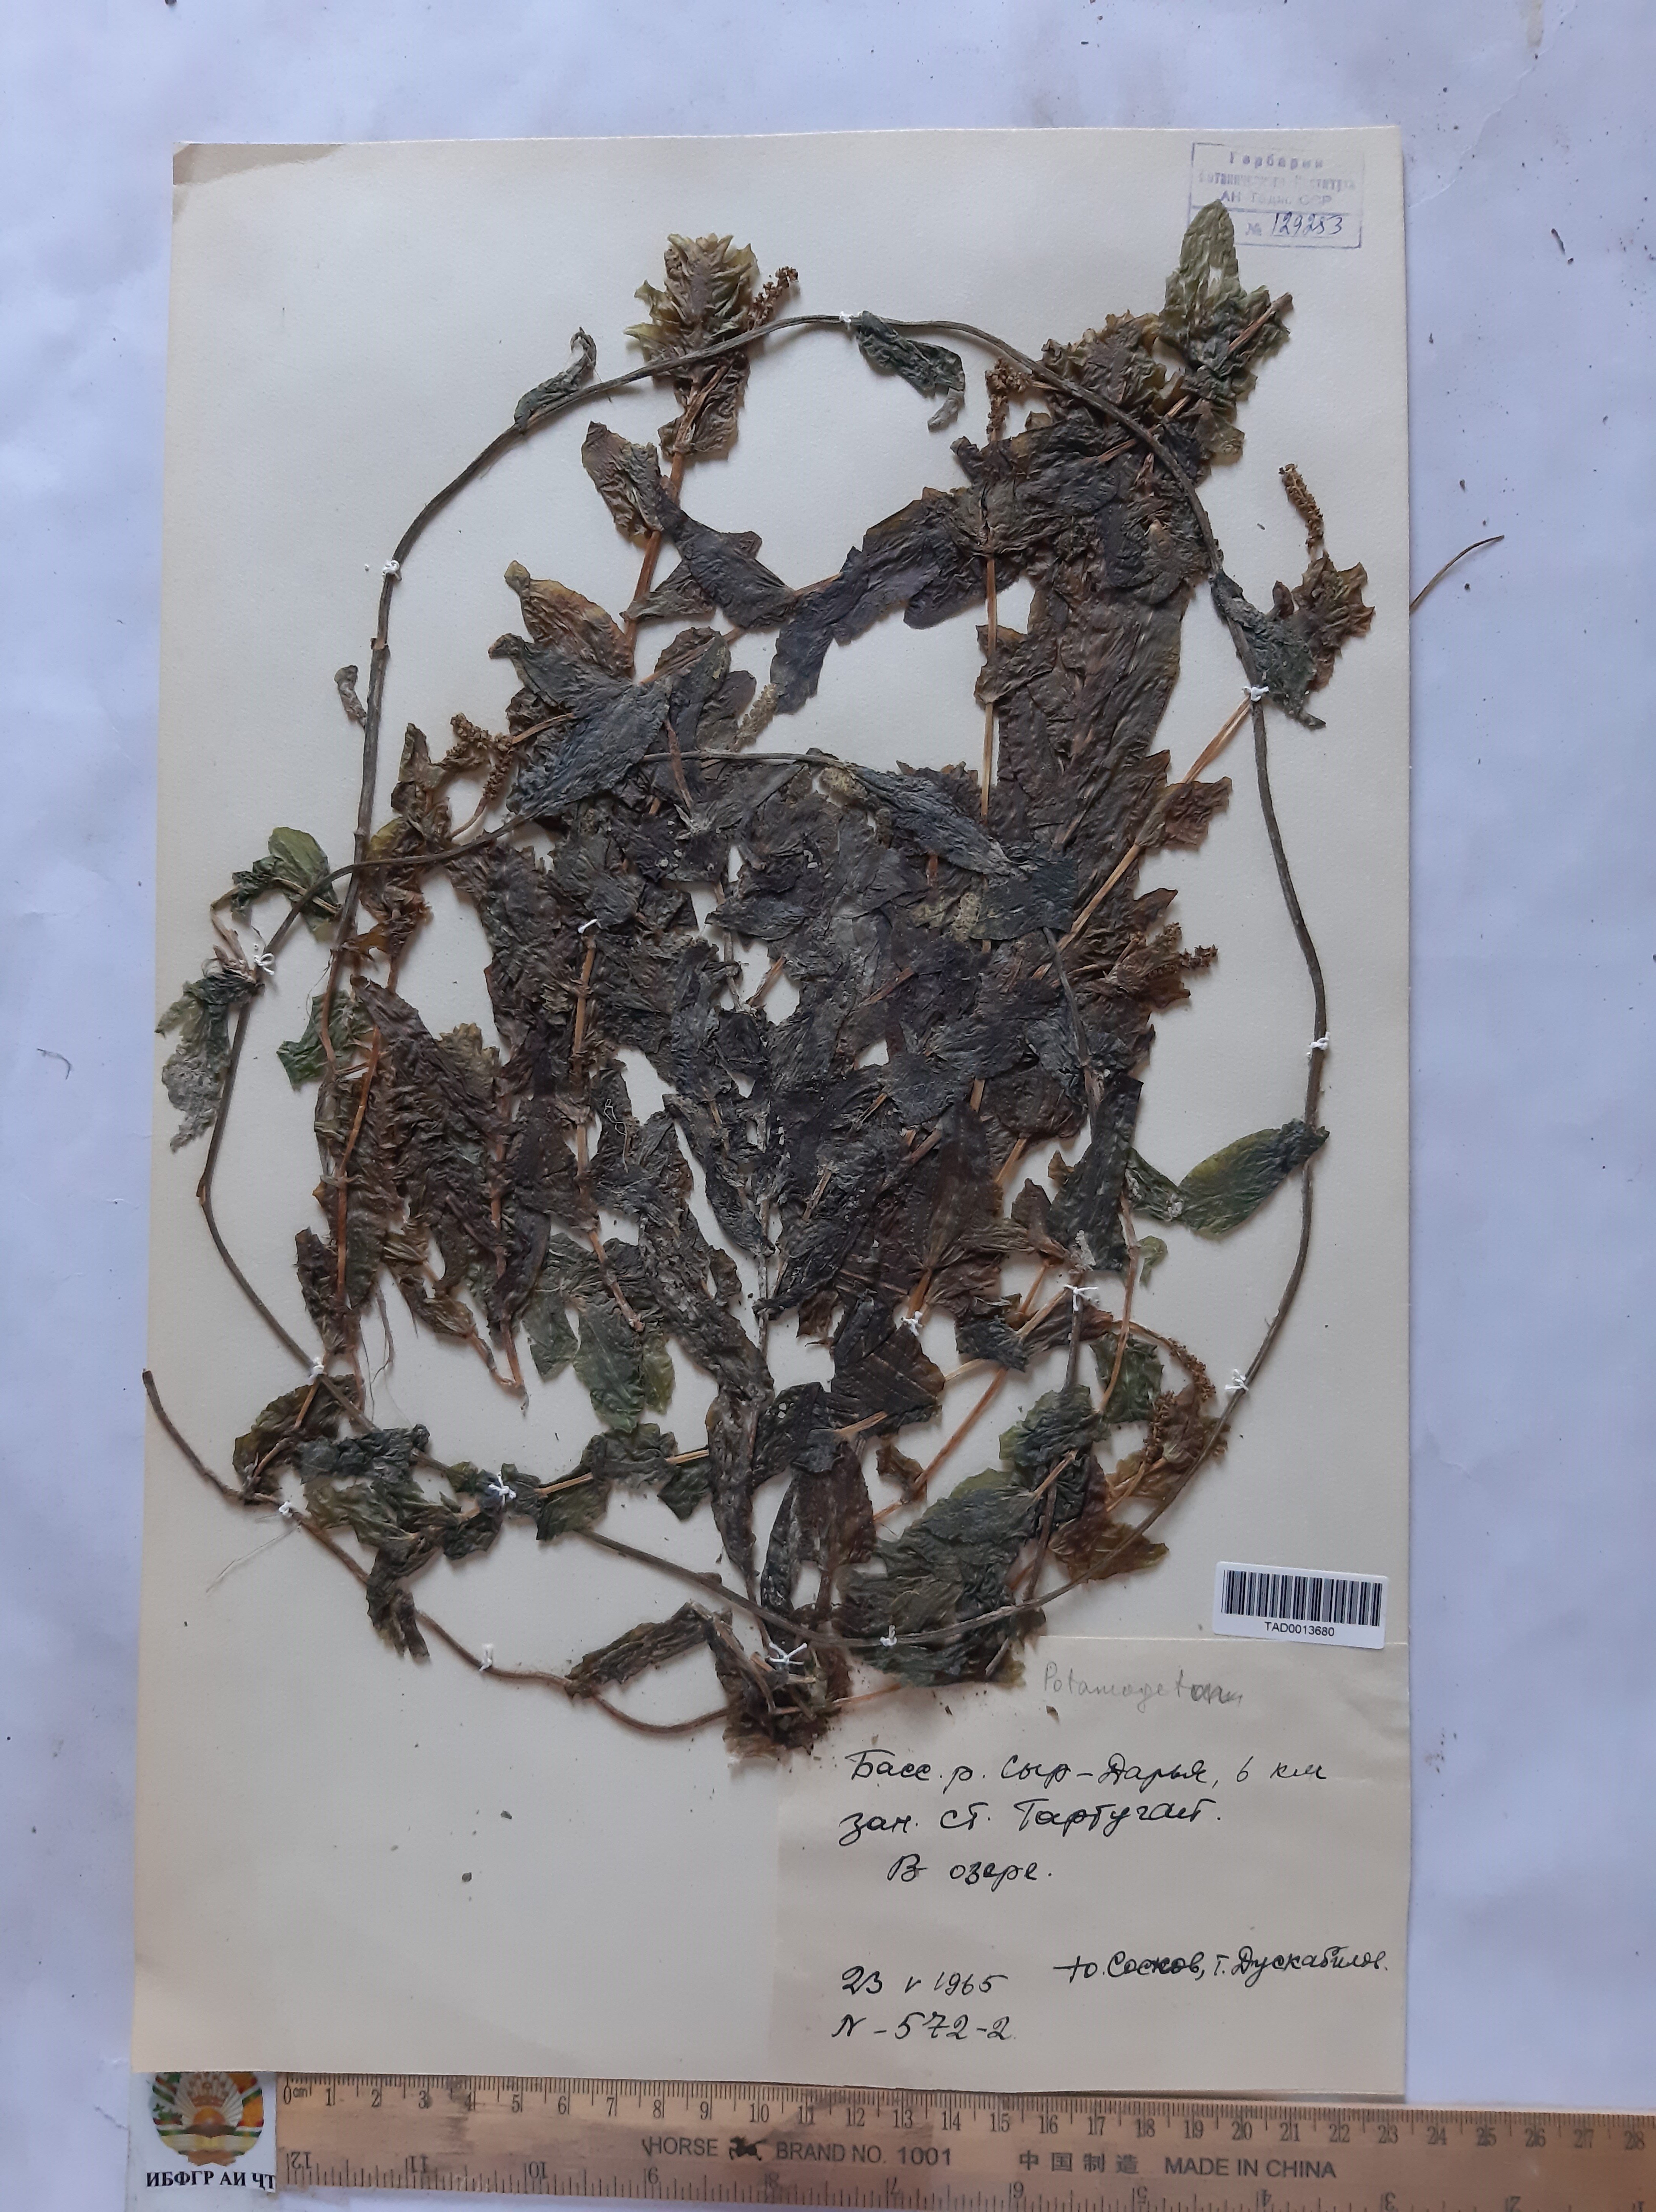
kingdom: Plantae
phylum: Tracheophyta
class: Liliopsida
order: Alismatales
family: Potamogetonaceae
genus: Zannichellia
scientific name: Zannichellia palustris
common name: Horned pondweed
